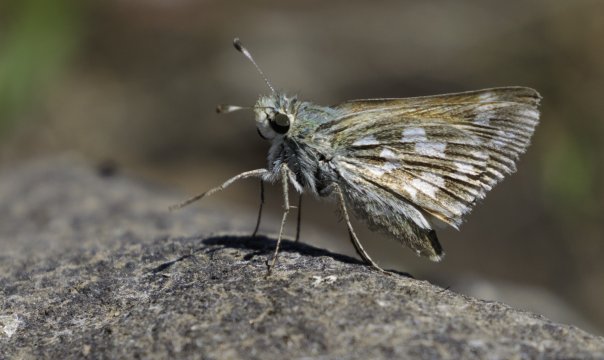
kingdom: Animalia
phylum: Arthropoda
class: Insecta
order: Lepidoptera
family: Hesperiidae
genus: Hesperia
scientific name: Hesperia juba
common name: Juba Skipper
